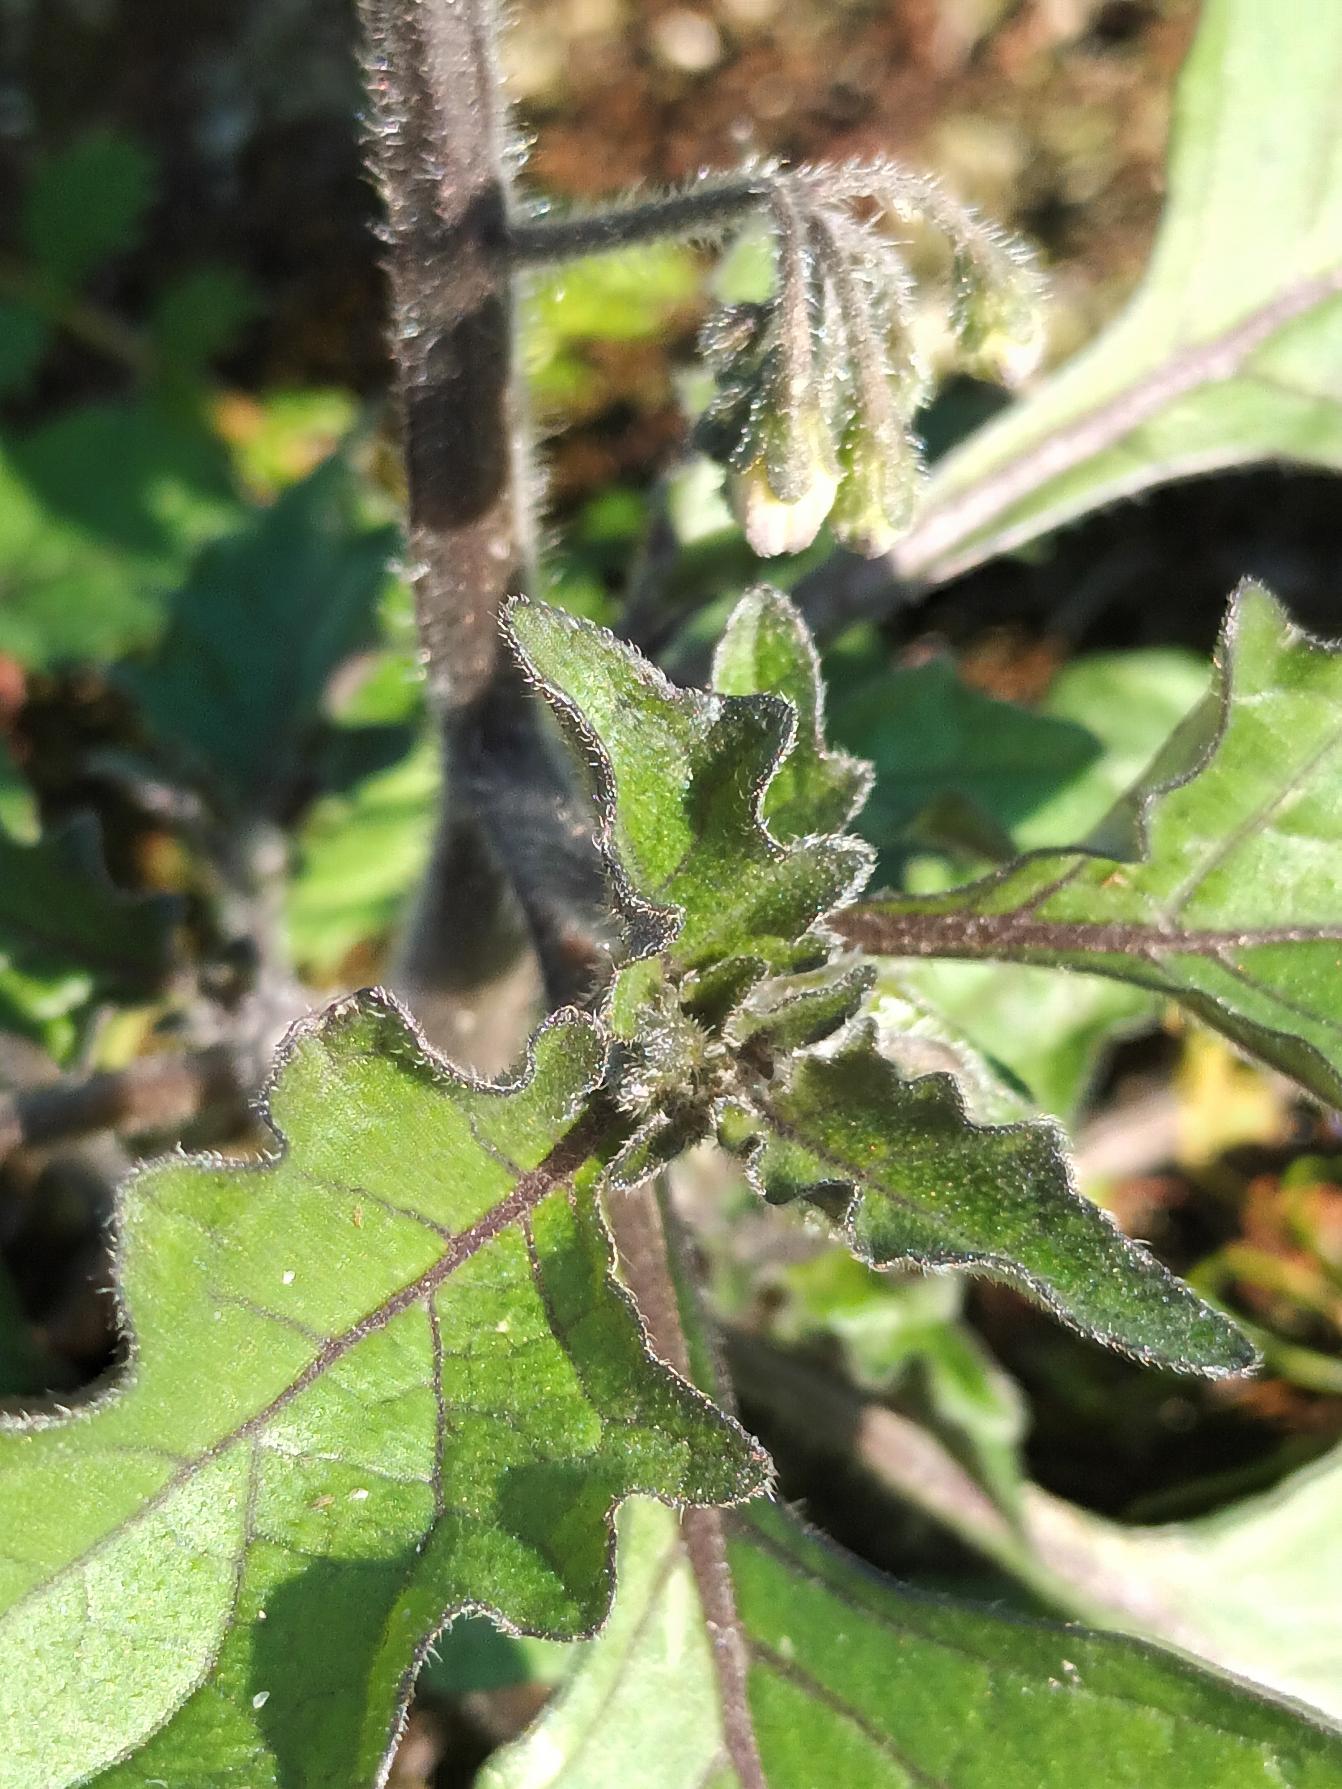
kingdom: Plantae
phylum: Tracheophyta
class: Magnoliopsida
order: Solanales
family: Solanaceae
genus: Solanum
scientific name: Solanum decipiens
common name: Kirtel-natskygge
